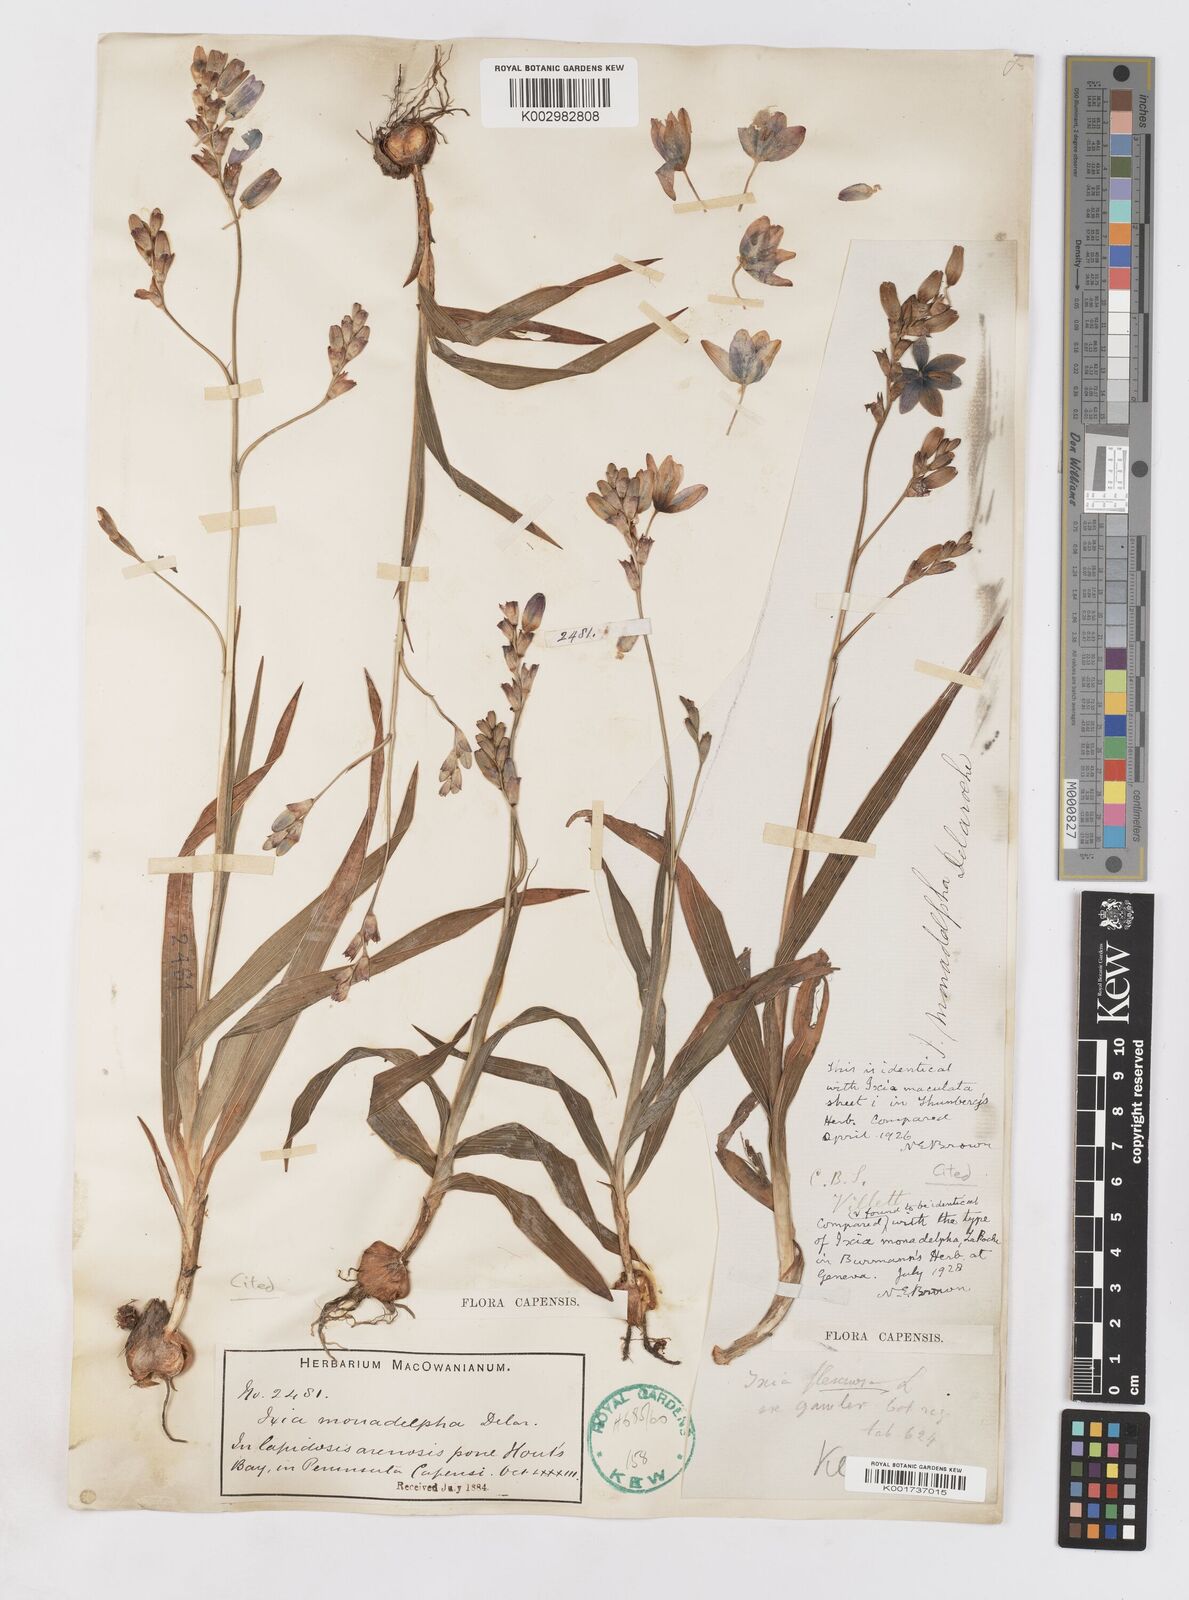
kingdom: Plantae
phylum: Tracheophyta
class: Liliopsida
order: Asparagales
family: Iridaceae
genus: Ixia
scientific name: Ixia monadelpha
